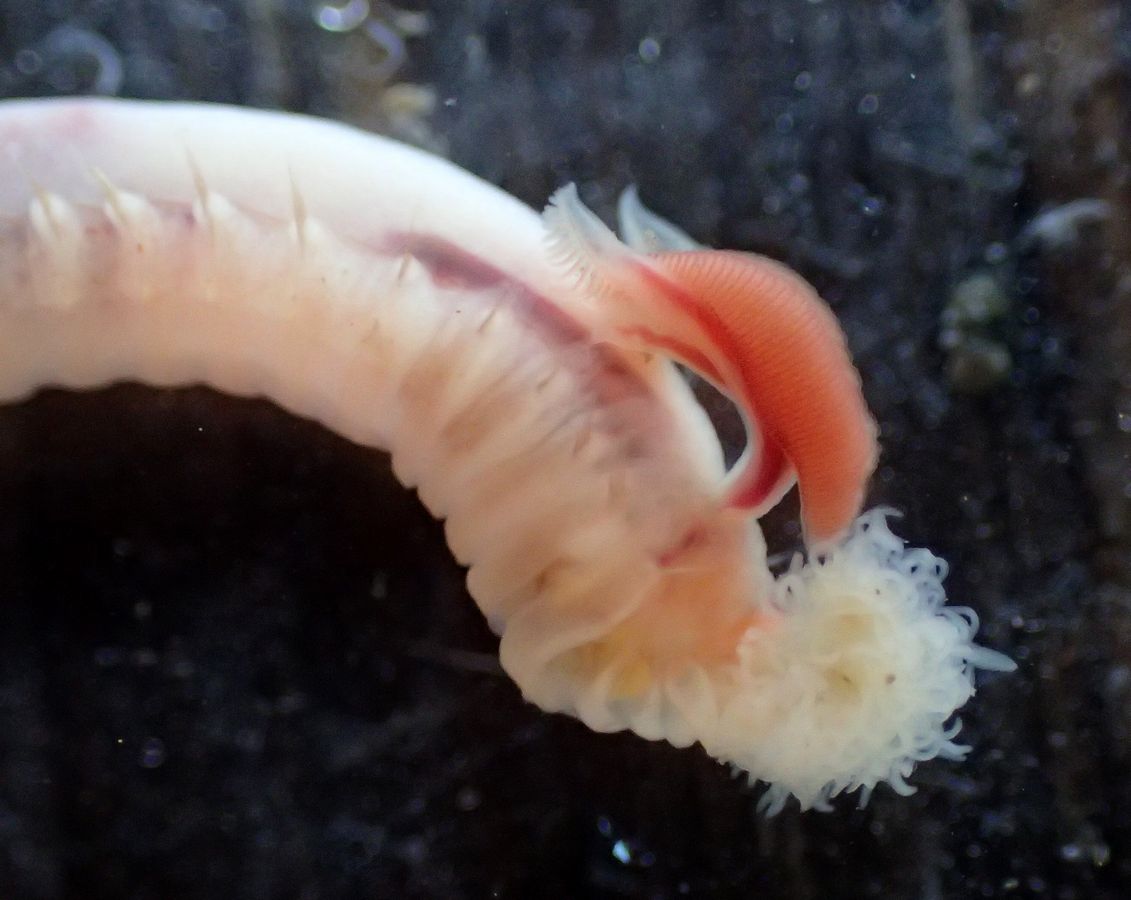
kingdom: Animalia
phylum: Annelida
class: Polychaeta
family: Trichobranchidae
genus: Terebellides
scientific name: Terebellides stroemii
